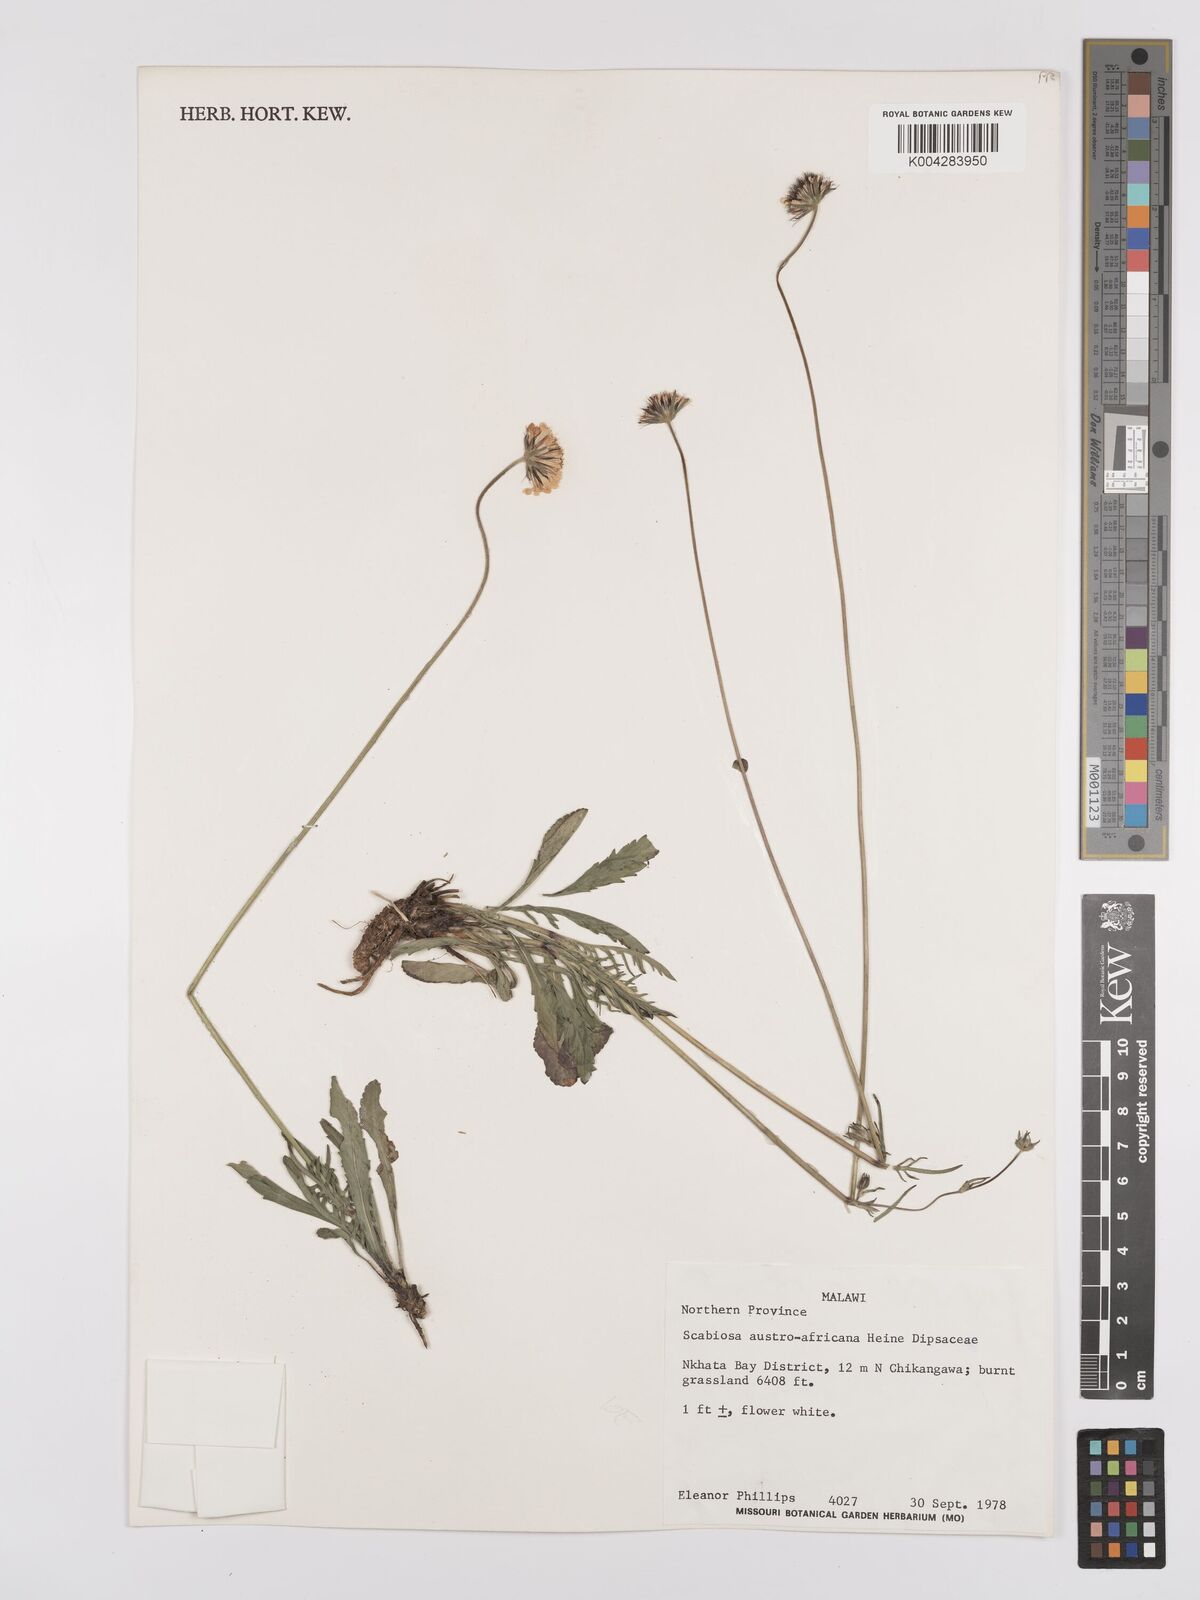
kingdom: Plantae
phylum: Tracheophyta
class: Magnoliopsida
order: Dipsacales
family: Caprifoliaceae
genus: Scabiosa
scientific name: Scabiosa austroafricana
